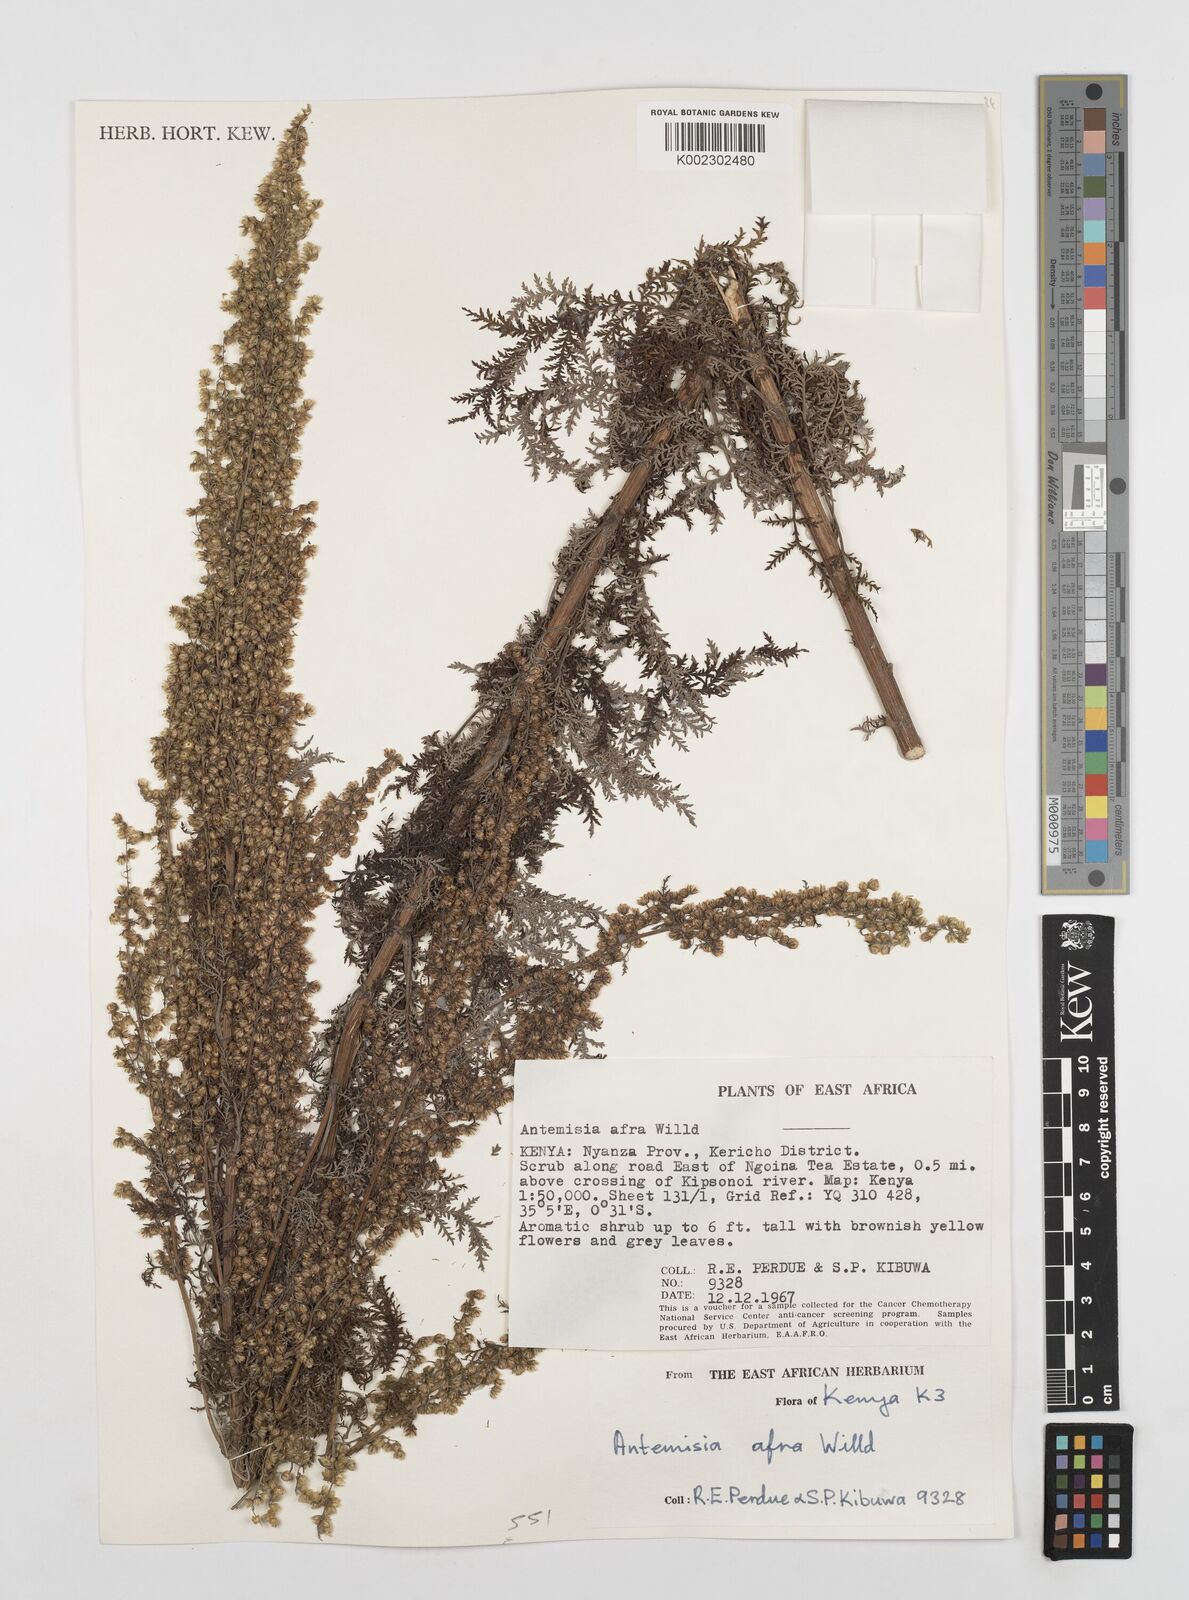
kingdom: Plantae
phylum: Tracheophyta
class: Magnoliopsida
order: Asterales
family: Asteraceae
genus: Artemisia
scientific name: Artemisia afra
